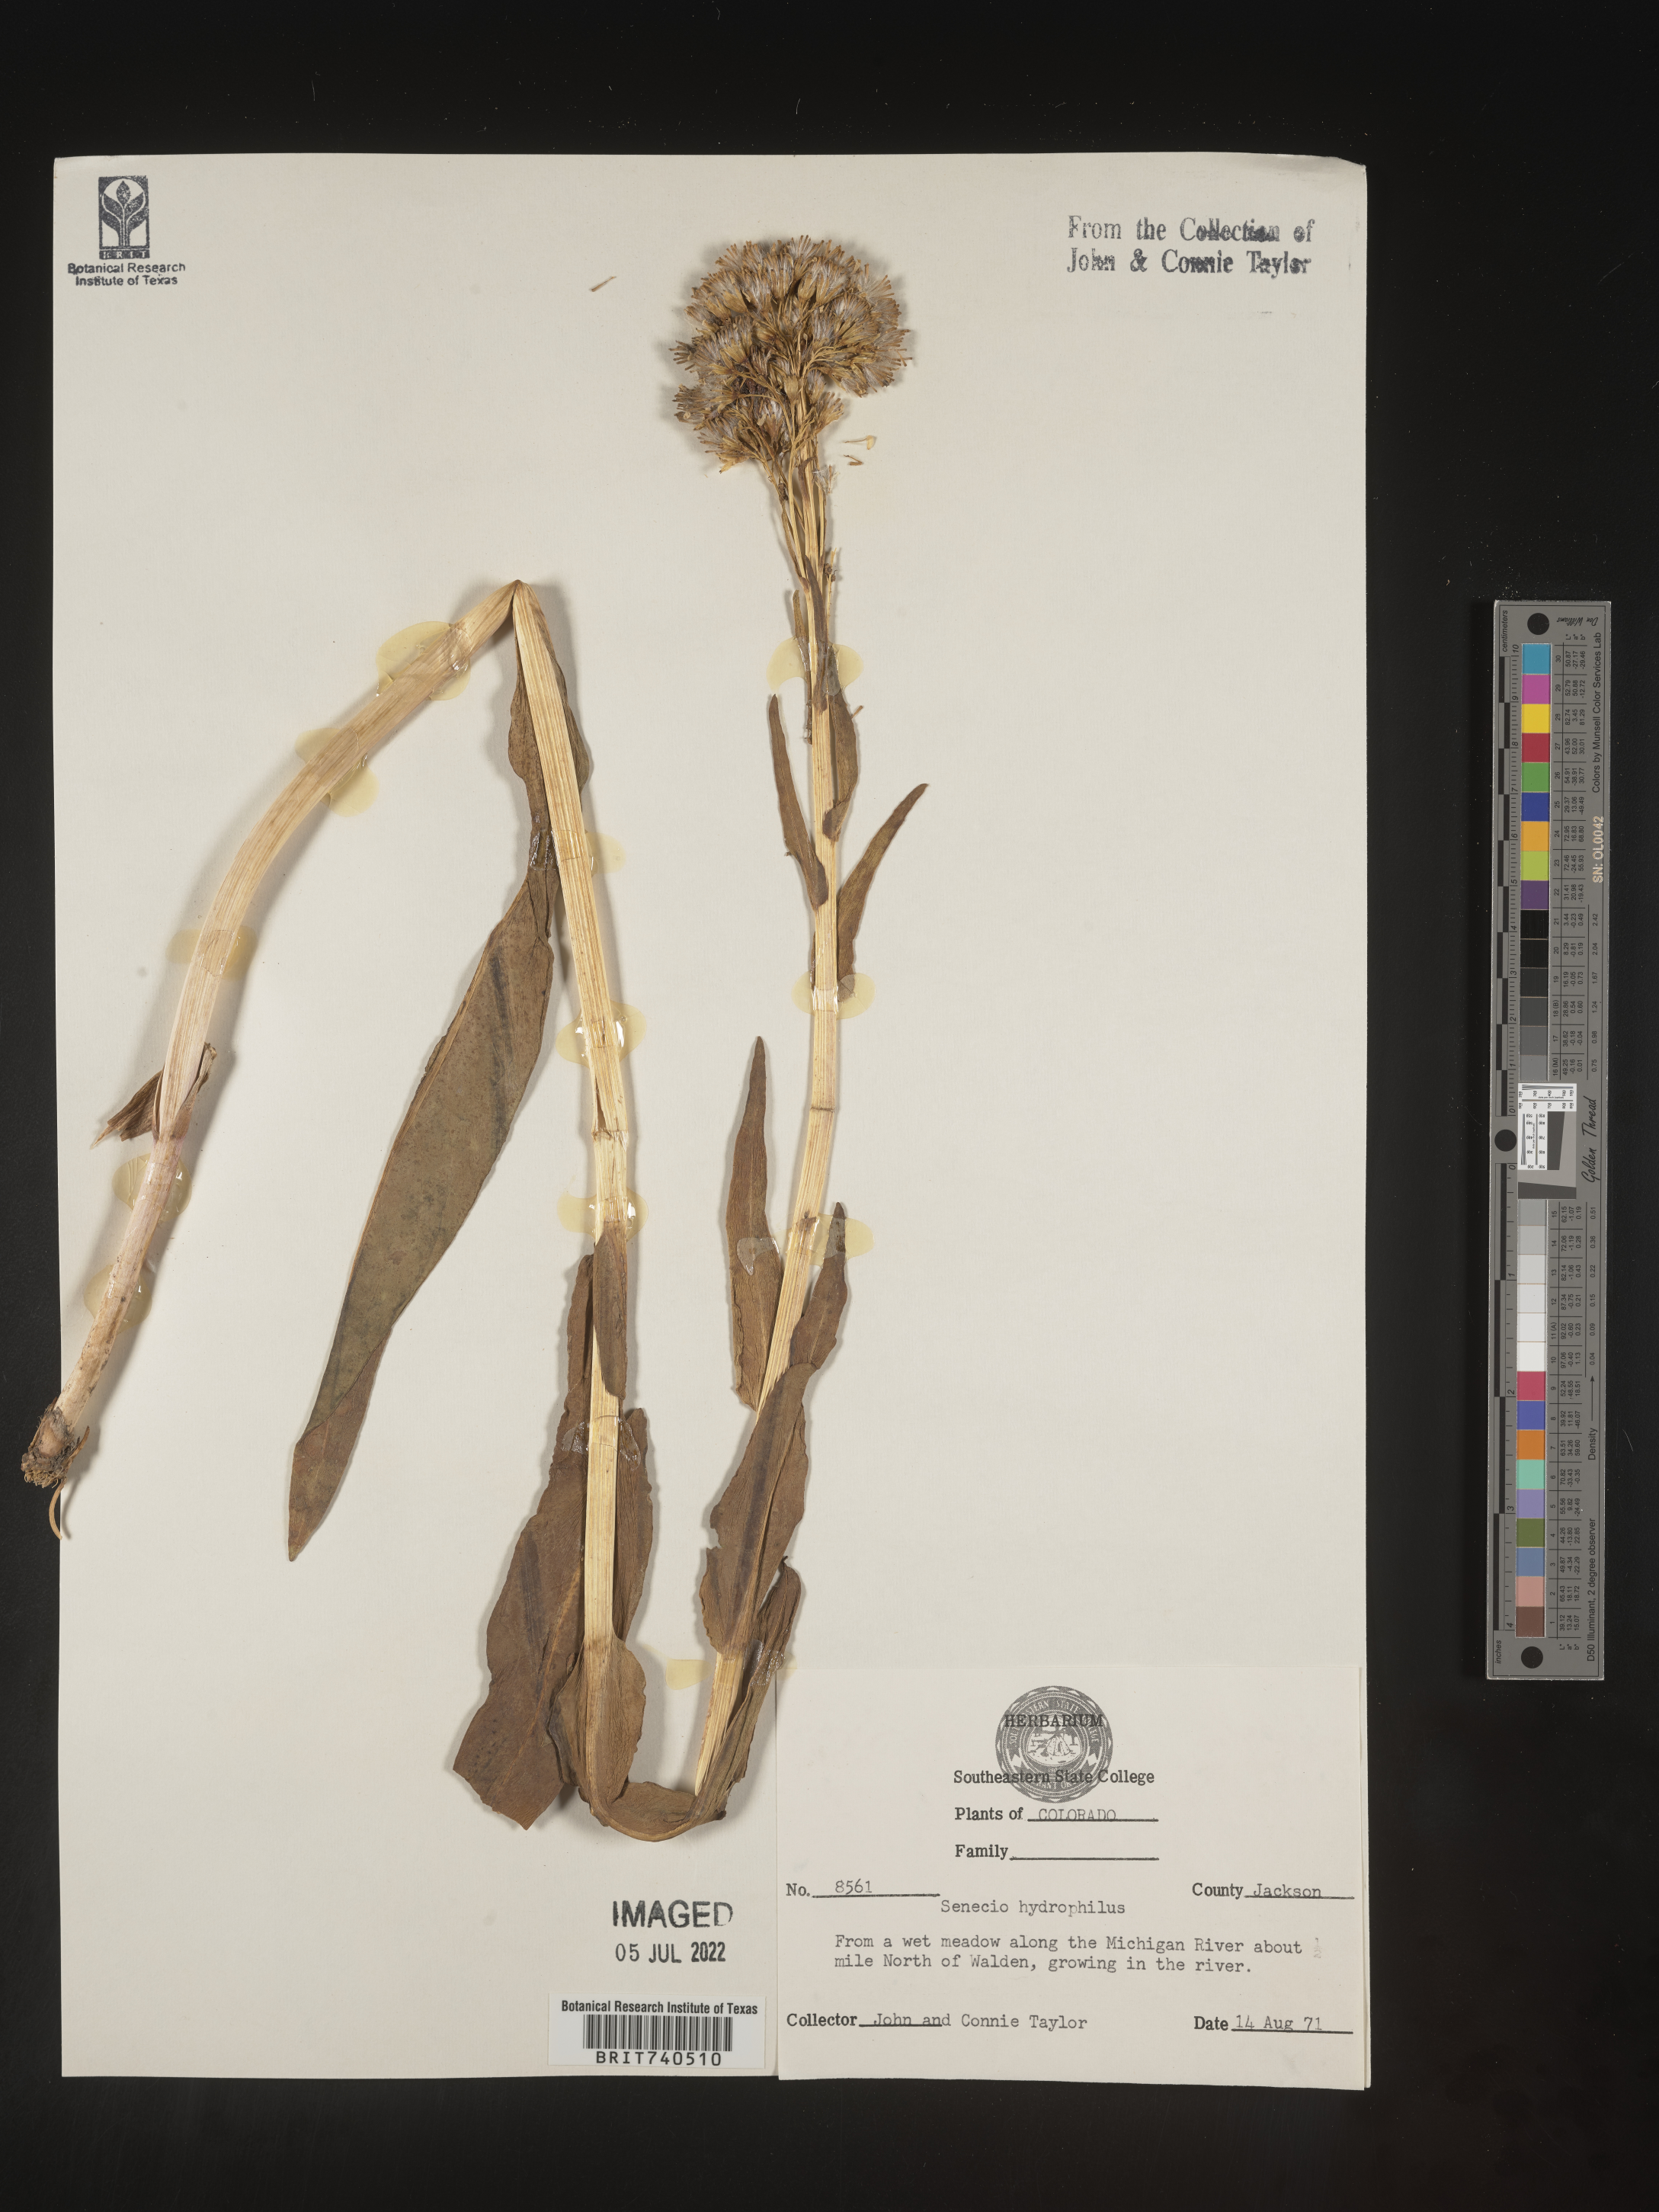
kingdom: Plantae
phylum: Tracheophyta
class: Magnoliopsida
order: Asterales
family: Asteraceae
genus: Senecio
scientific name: Senecio hydrophilus
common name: Water ragwort
